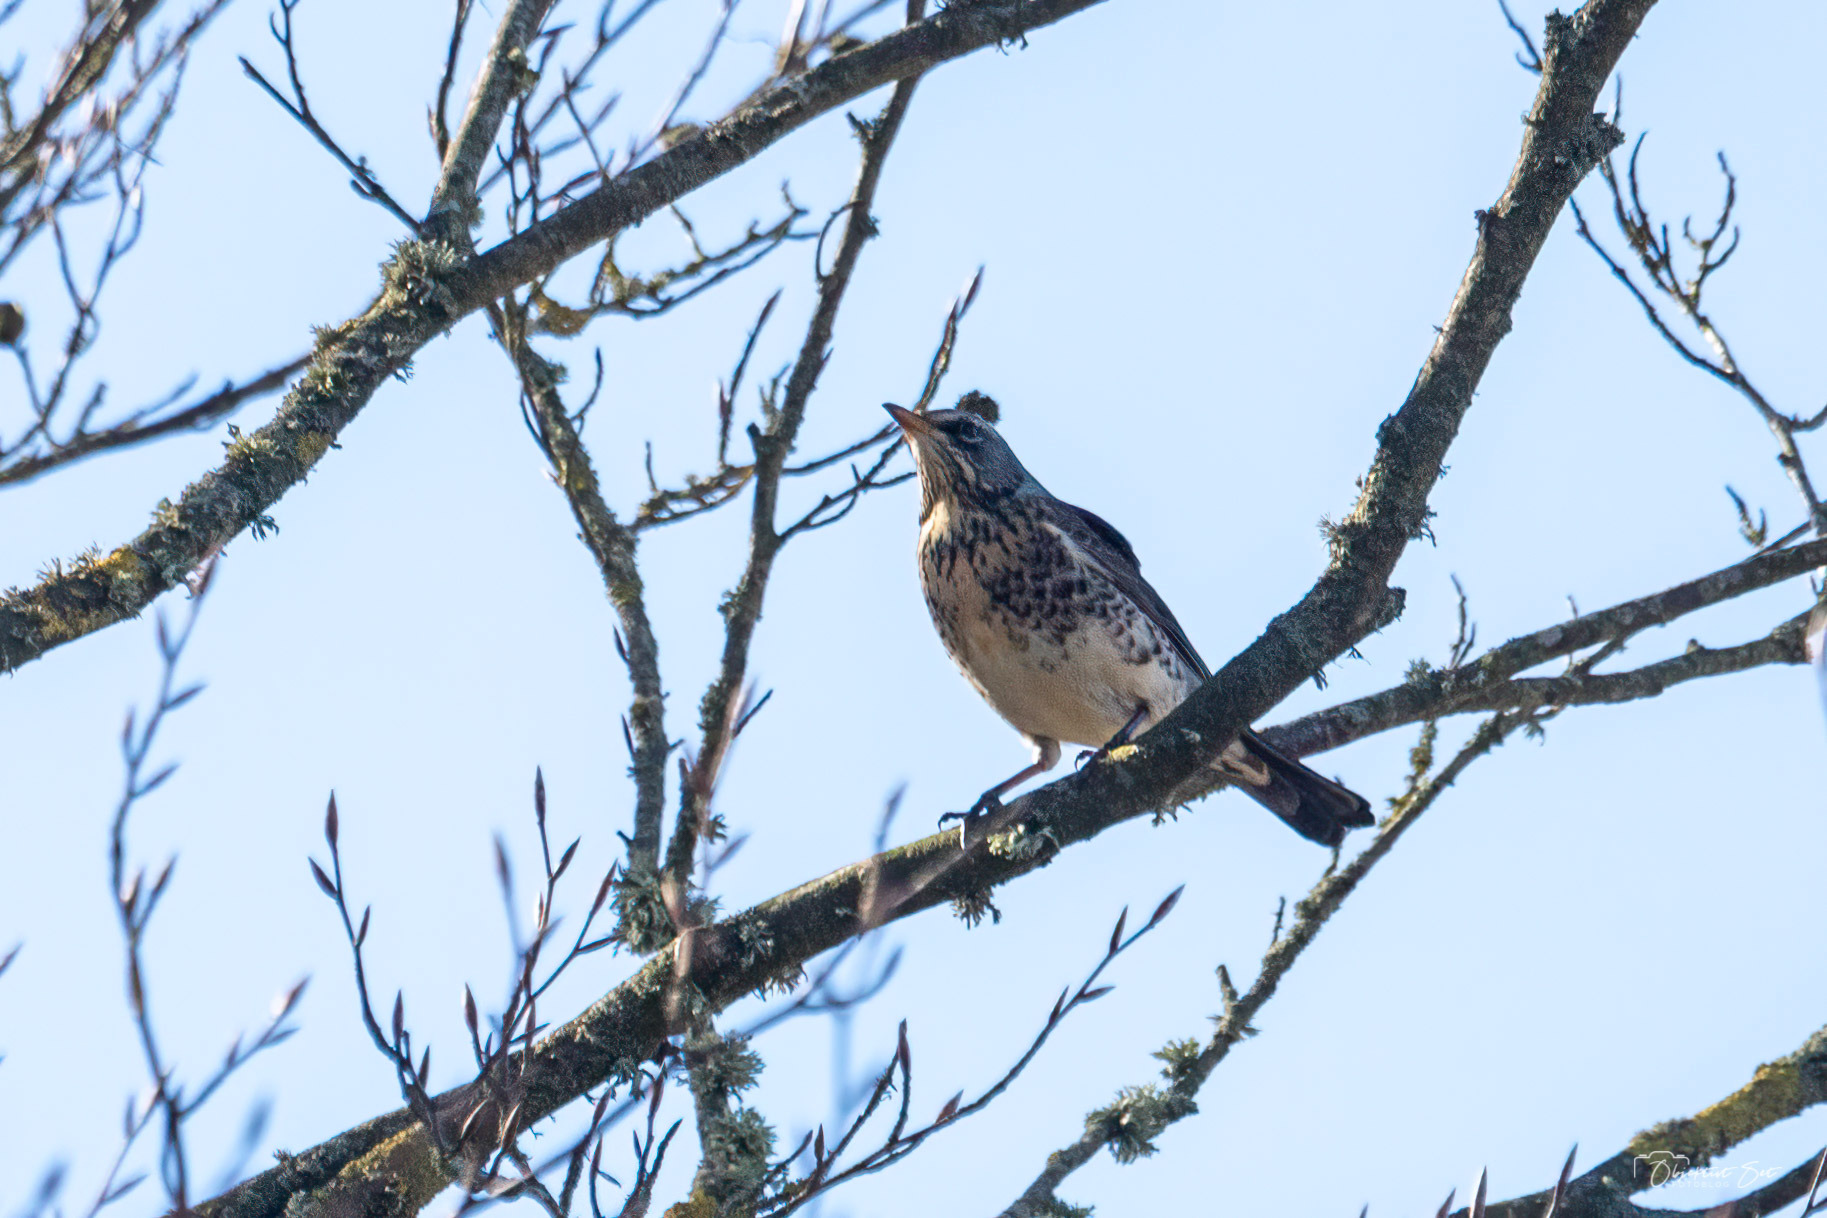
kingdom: Animalia
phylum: Chordata
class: Aves
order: Passeriformes
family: Turdidae
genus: Turdus
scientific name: Turdus pilaris
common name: Sjagger
